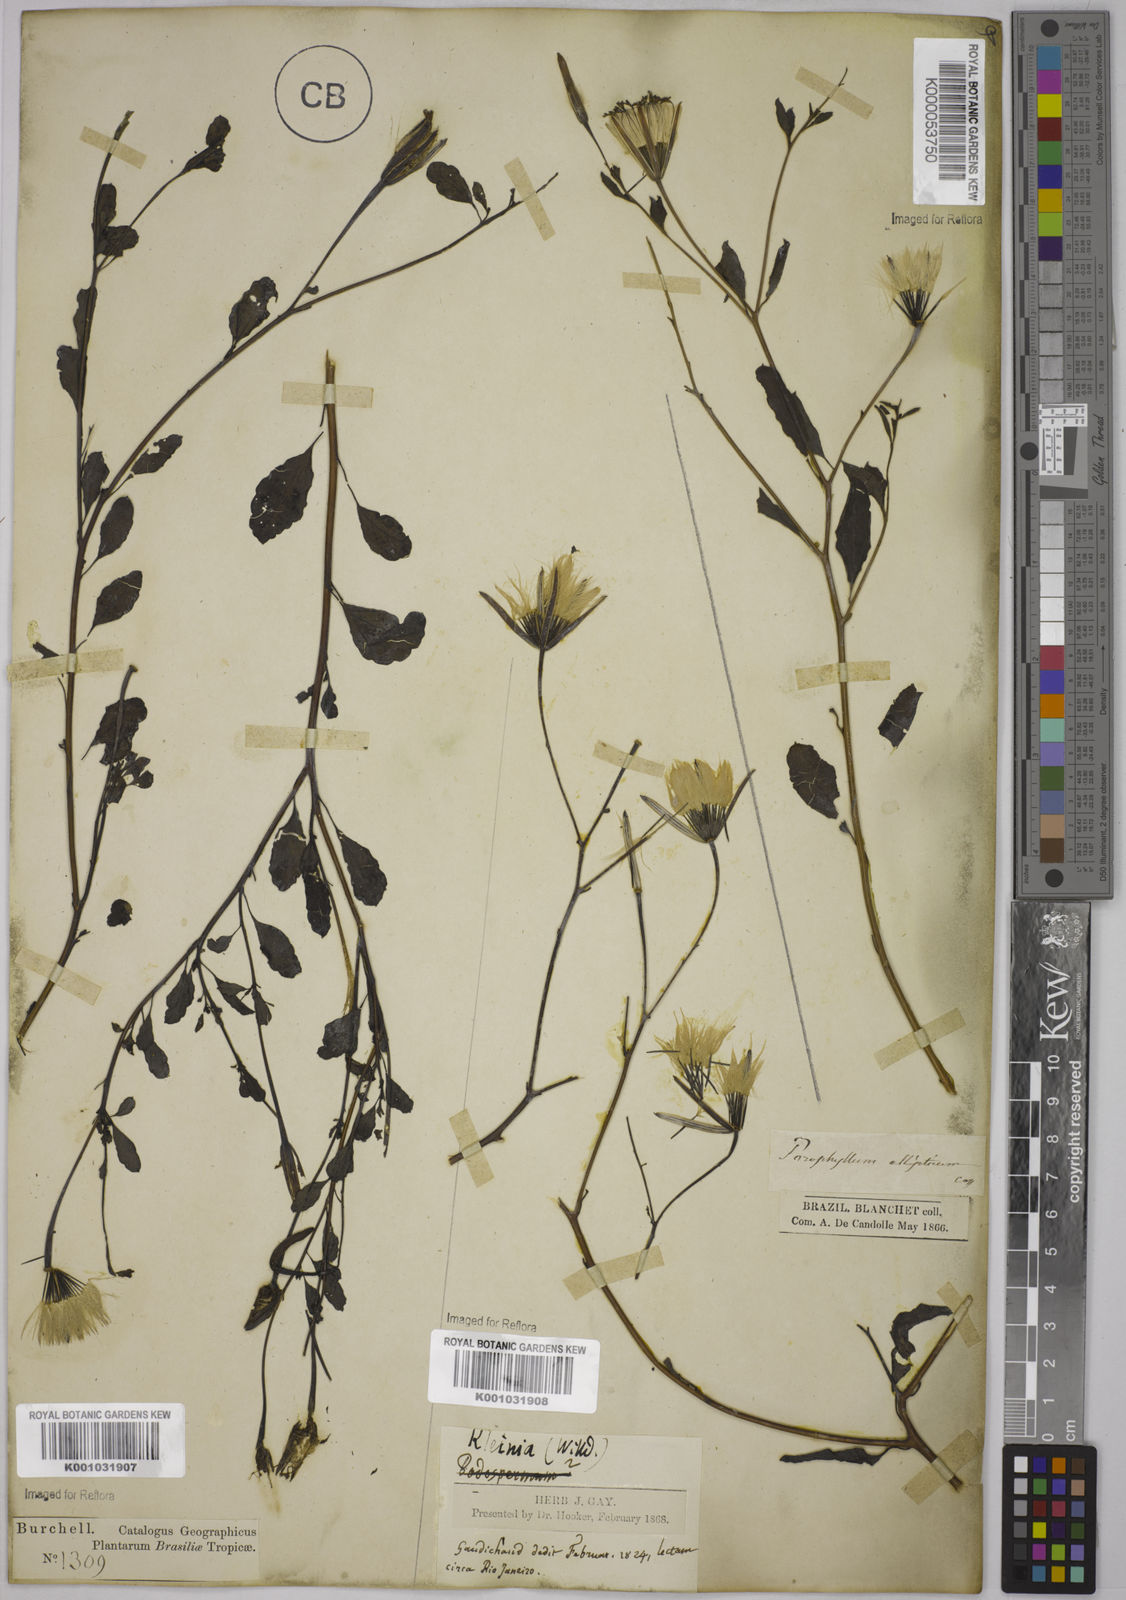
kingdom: Plantae
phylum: Tracheophyta
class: Magnoliopsida
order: Asterales
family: Asteraceae
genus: Porophyllum
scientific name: Porophyllum ruderale
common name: Yerba porosa
